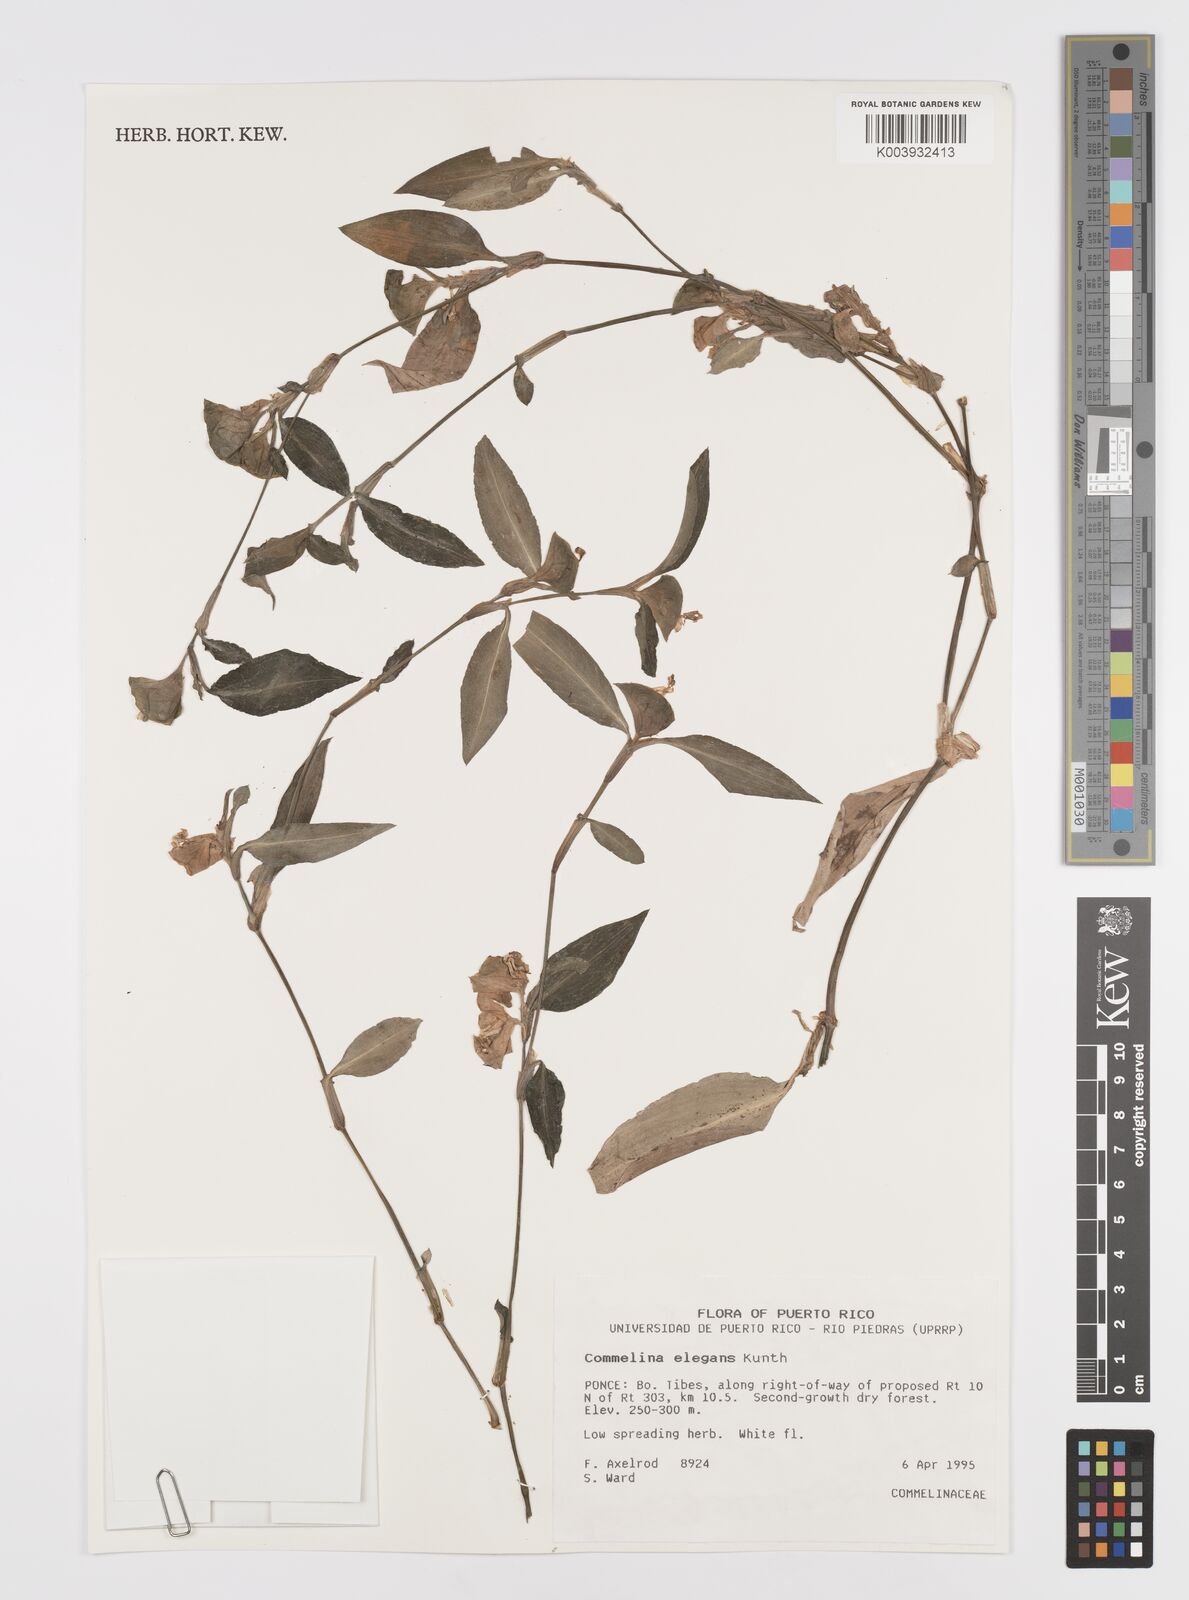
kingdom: Plantae
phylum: Tracheophyta
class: Liliopsida
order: Commelinales
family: Commelinaceae
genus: Commelina
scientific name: Commelina erecta
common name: Blousel blommetjie
